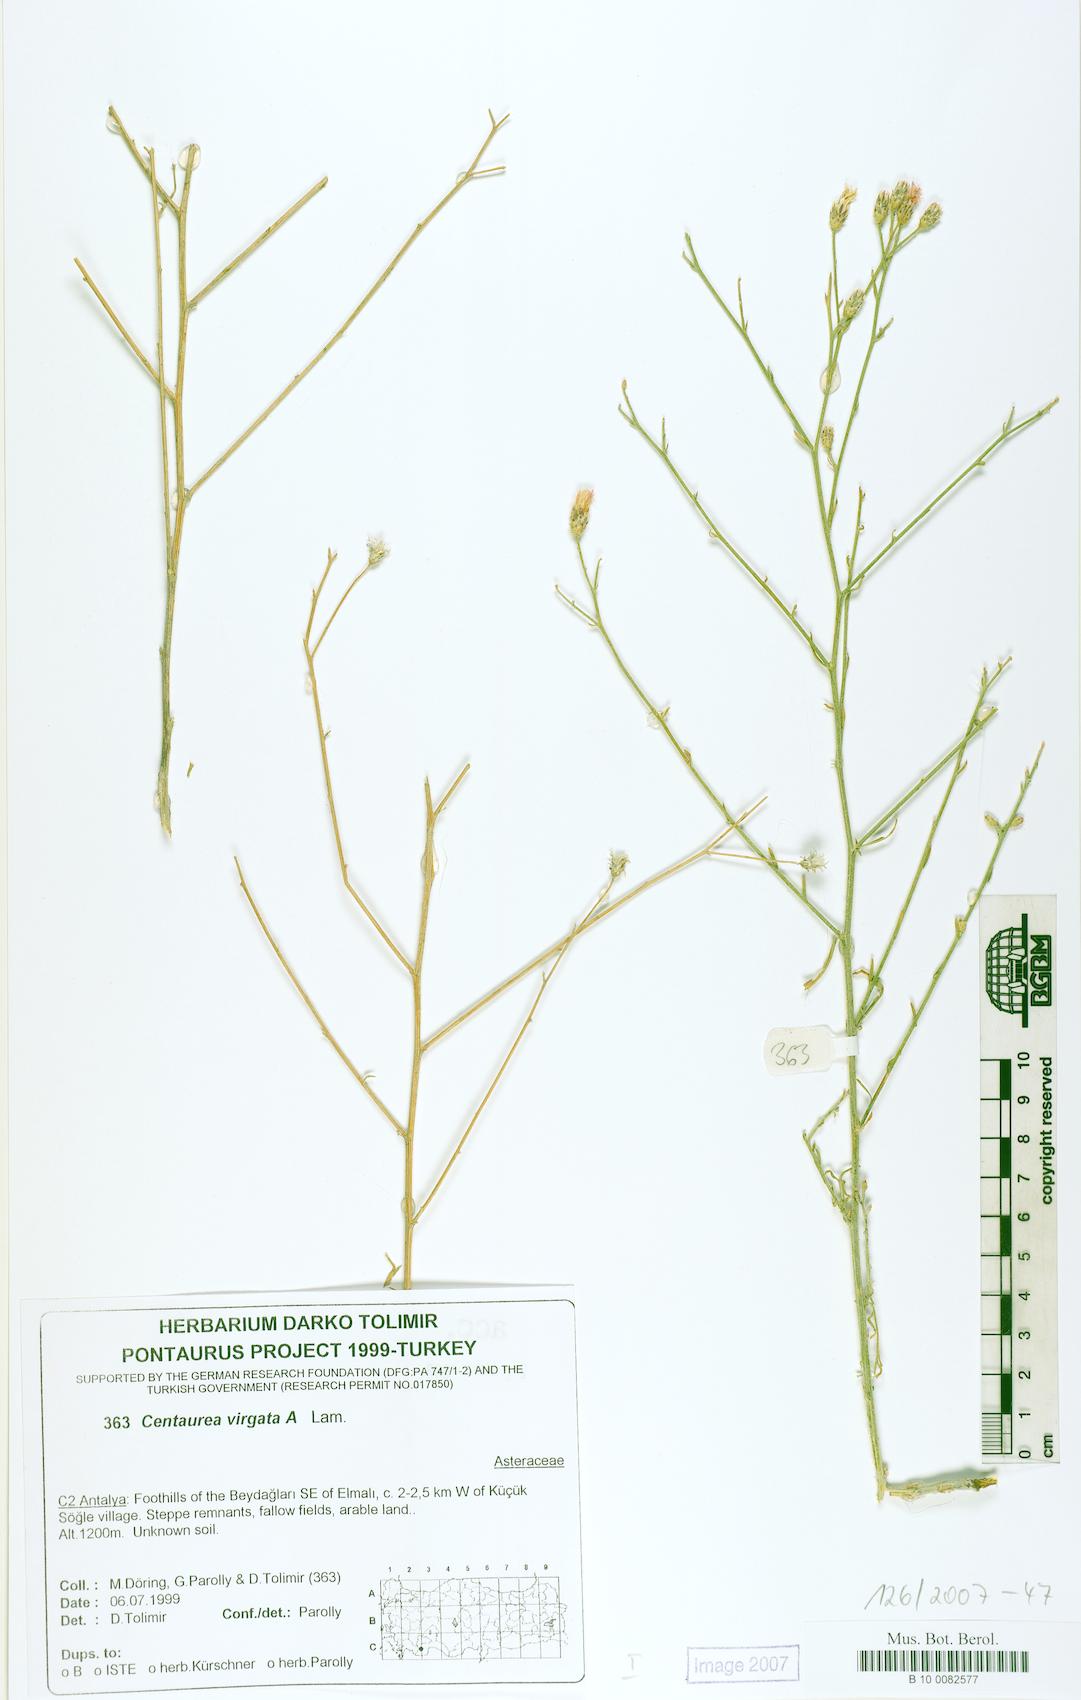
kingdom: Plantae
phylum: Tracheophyta
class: Magnoliopsida
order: Asterales
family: Asteraceae
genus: Centaurea
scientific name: Centaurea virgata
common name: Squarrose knapweed
